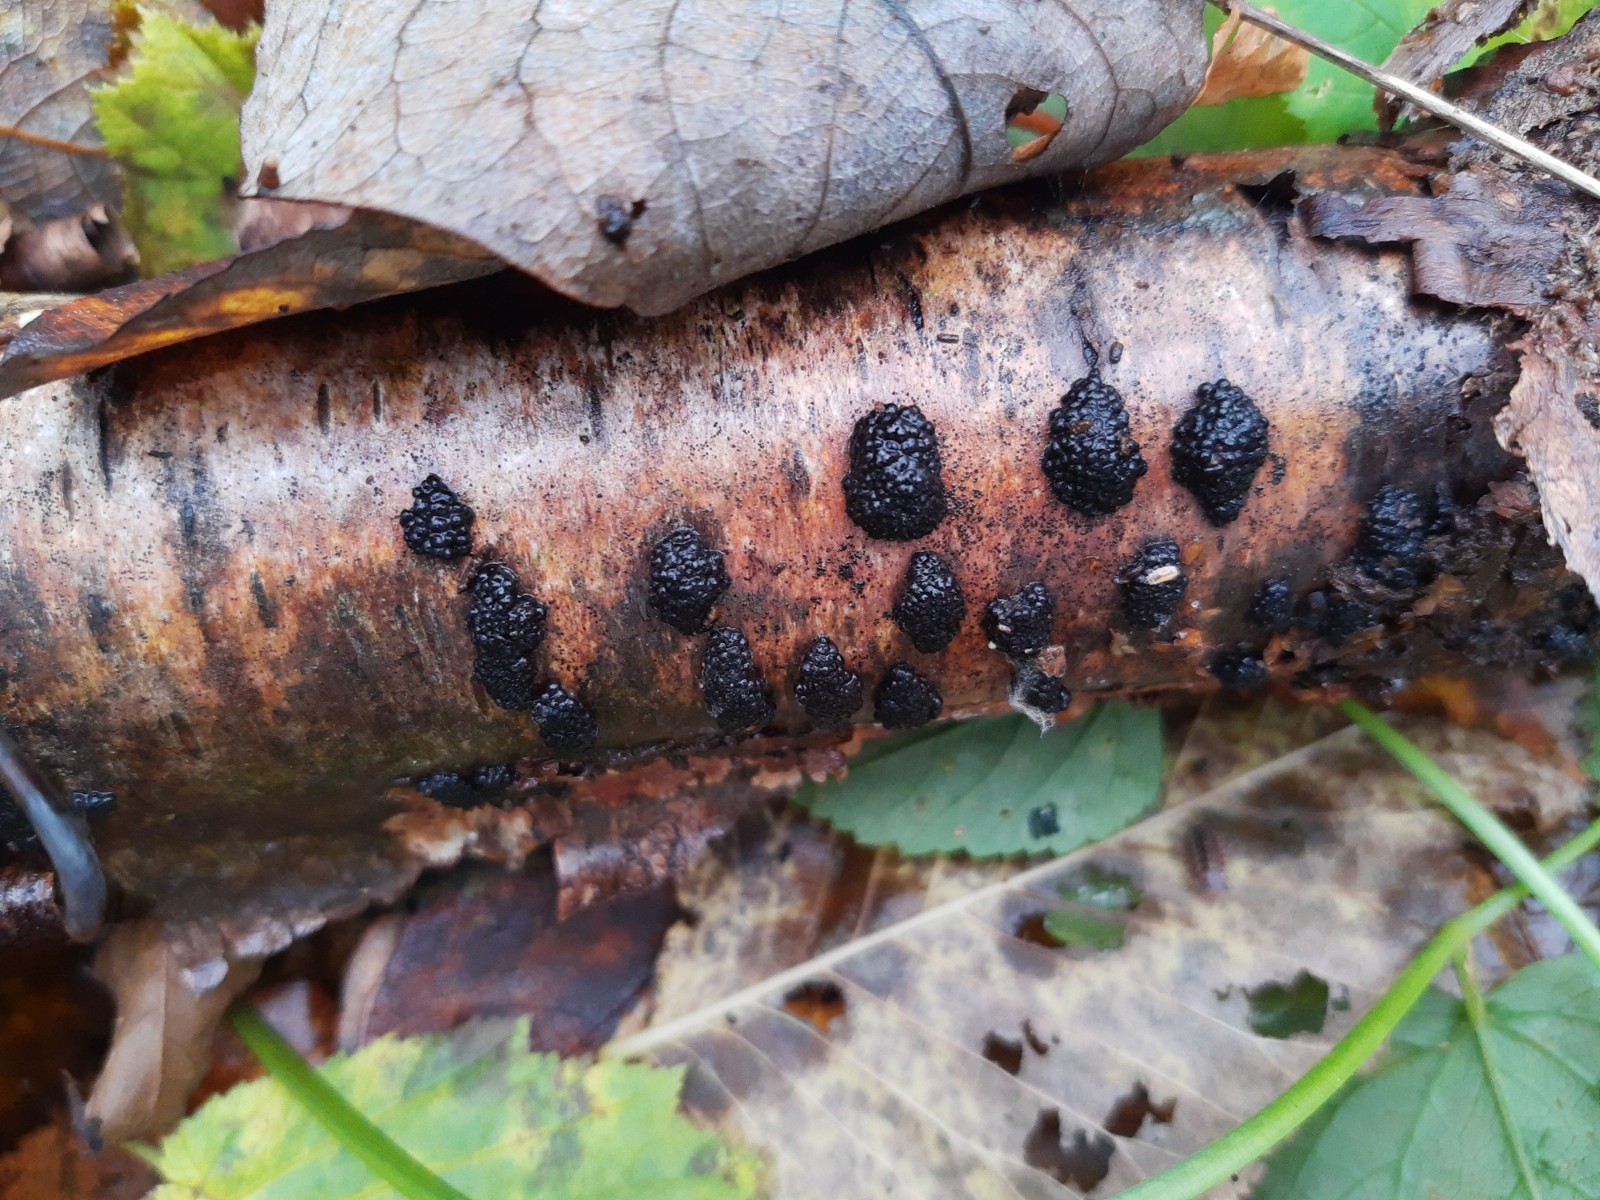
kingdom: Fungi
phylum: Ascomycota
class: Sordariomycetes
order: Xylariales
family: Hypoxylaceae
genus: Jackrogersella
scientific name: Jackrogersella multiformis
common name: foranderlig kulbær
